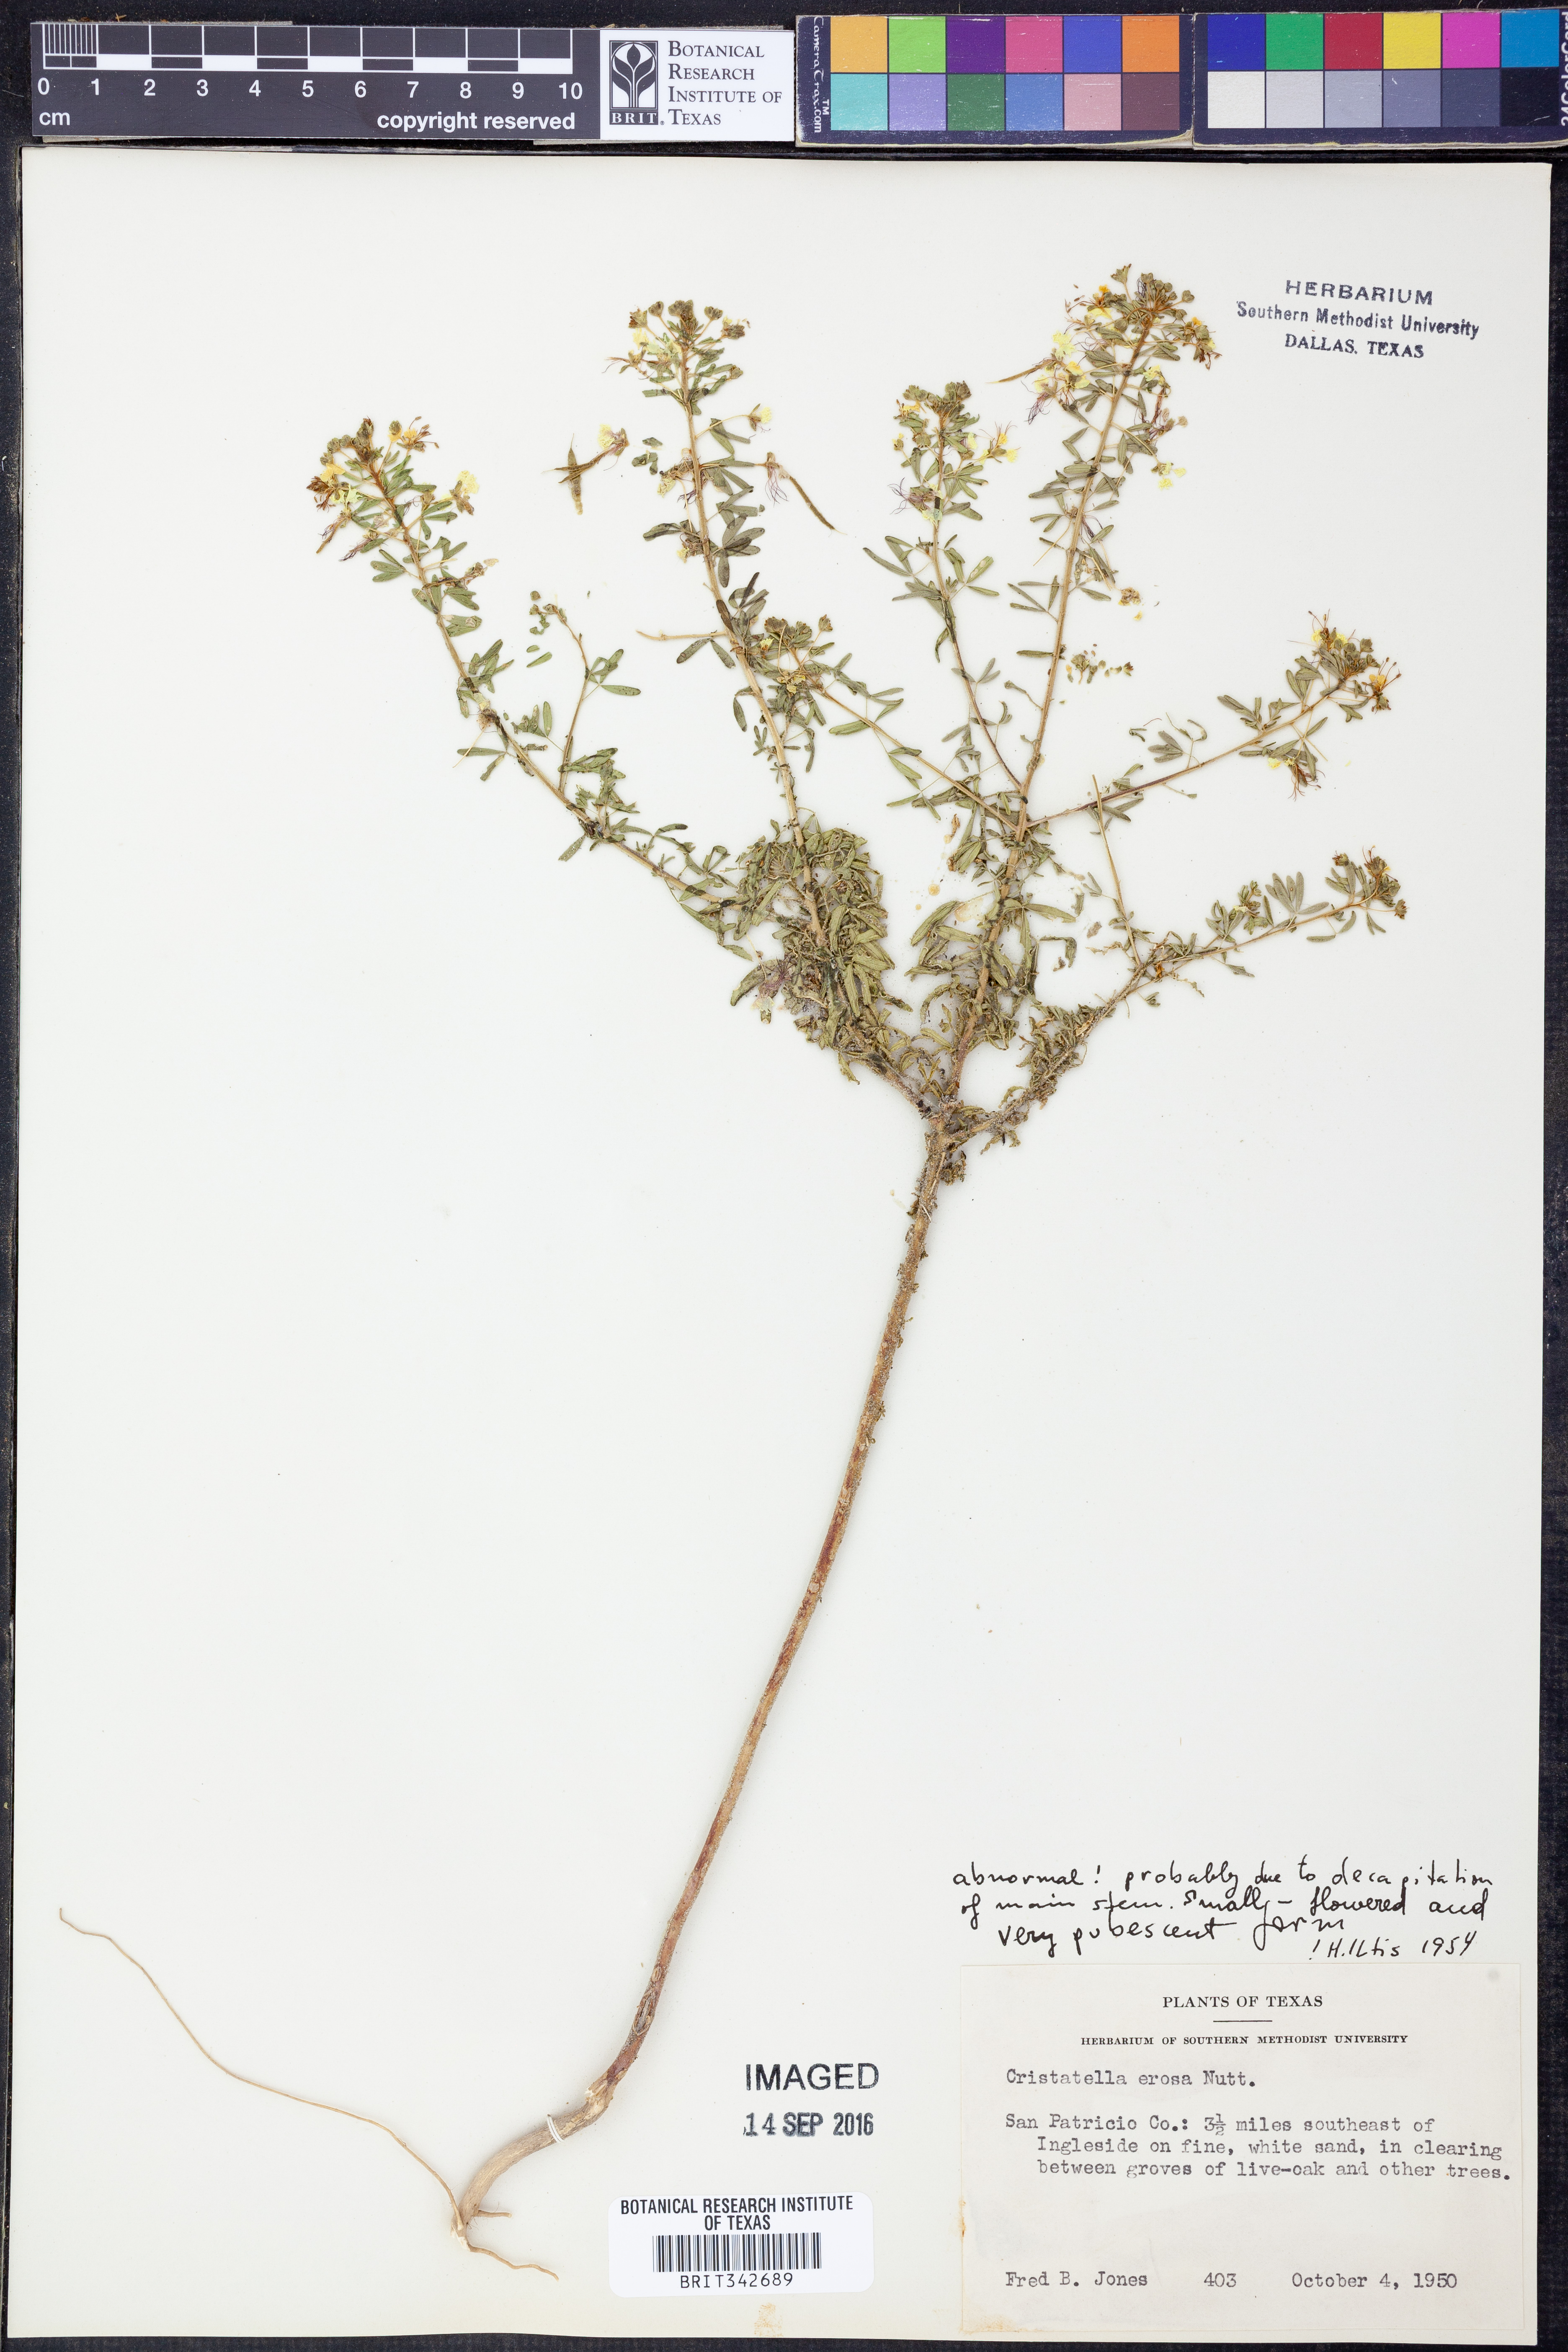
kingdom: Plantae
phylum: Tracheophyta
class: Magnoliopsida
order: Brassicales
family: Cleomaceae
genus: Polanisia
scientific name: Polanisia erosa
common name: Large clammyweed
